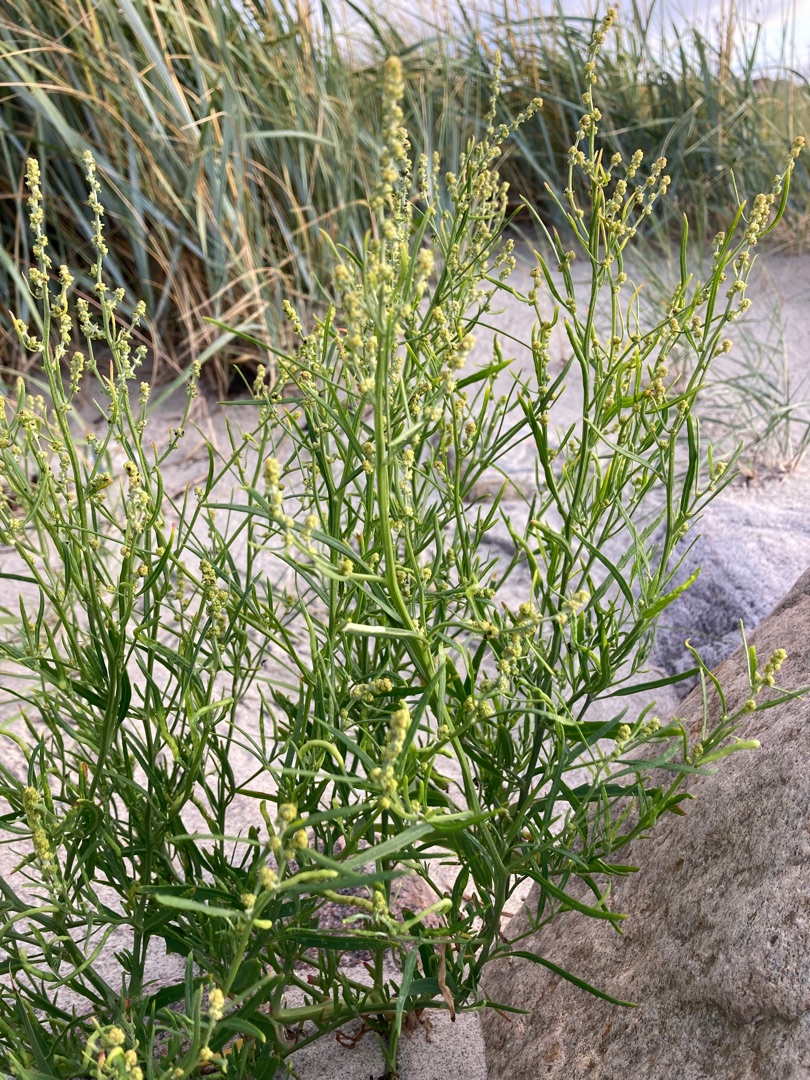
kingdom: Plantae
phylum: Tracheophyta
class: Magnoliopsida
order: Caryophyllales
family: Amaranthaceae
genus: Atriplex
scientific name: Atriplex littoralis
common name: Strand-mælde
